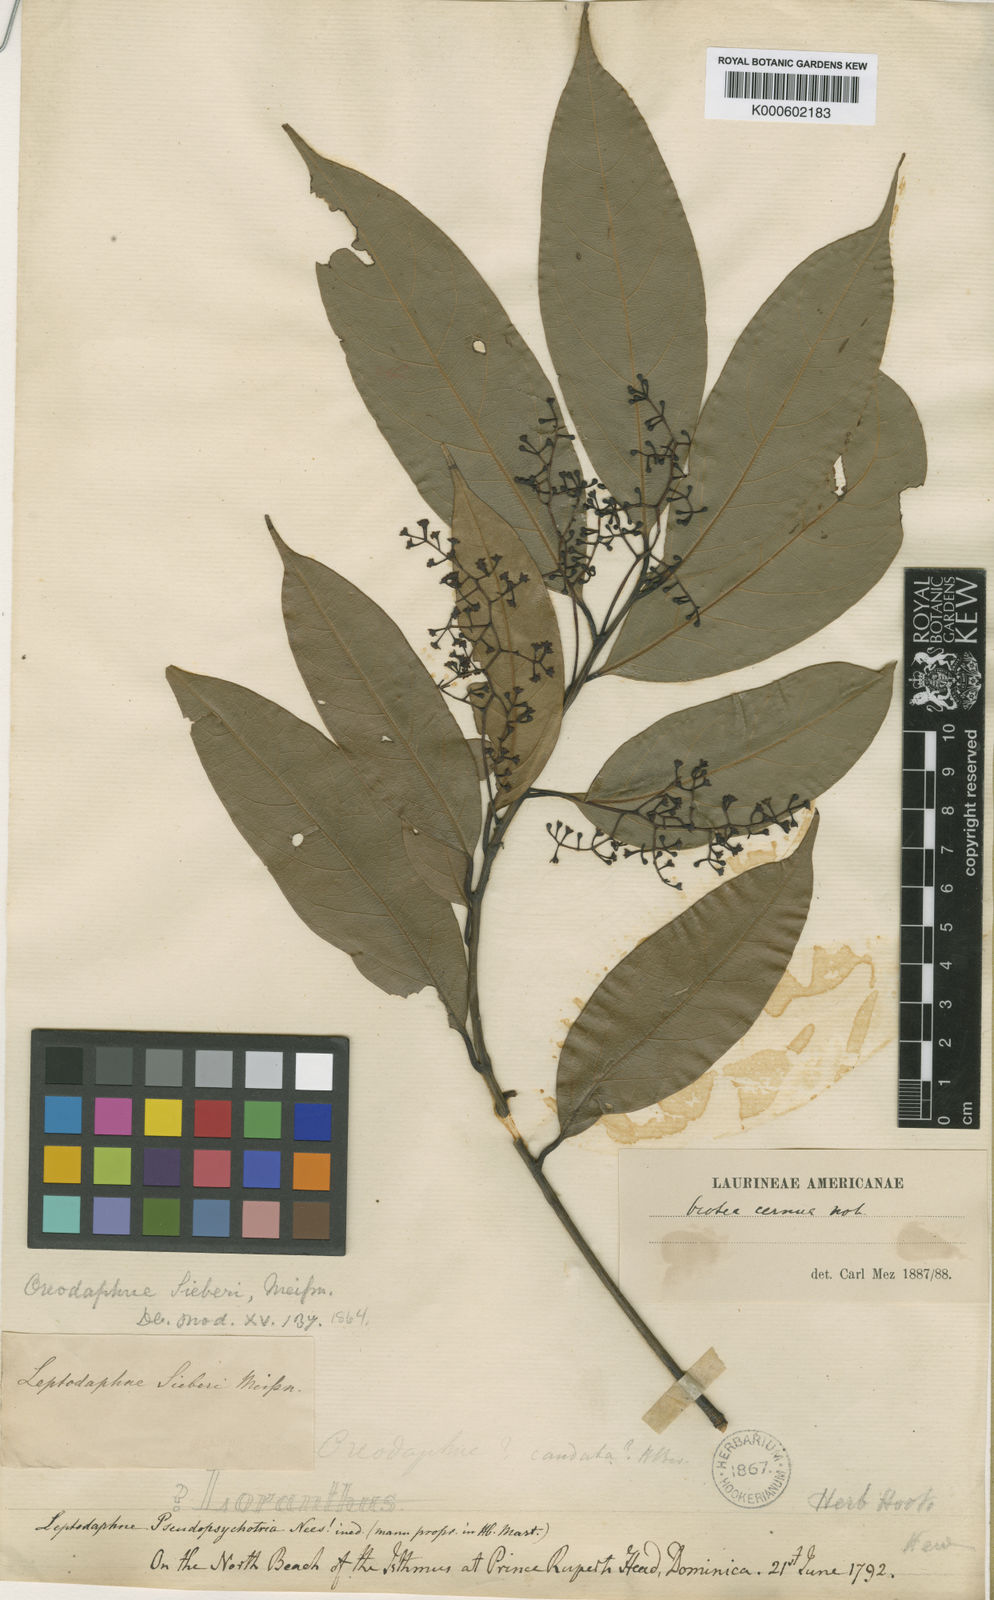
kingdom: Plantae
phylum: Tracheophyta
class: Magnoliopsida
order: Laurales
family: Lauraceae
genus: Ocotea
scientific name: Ocotea leptobotra
